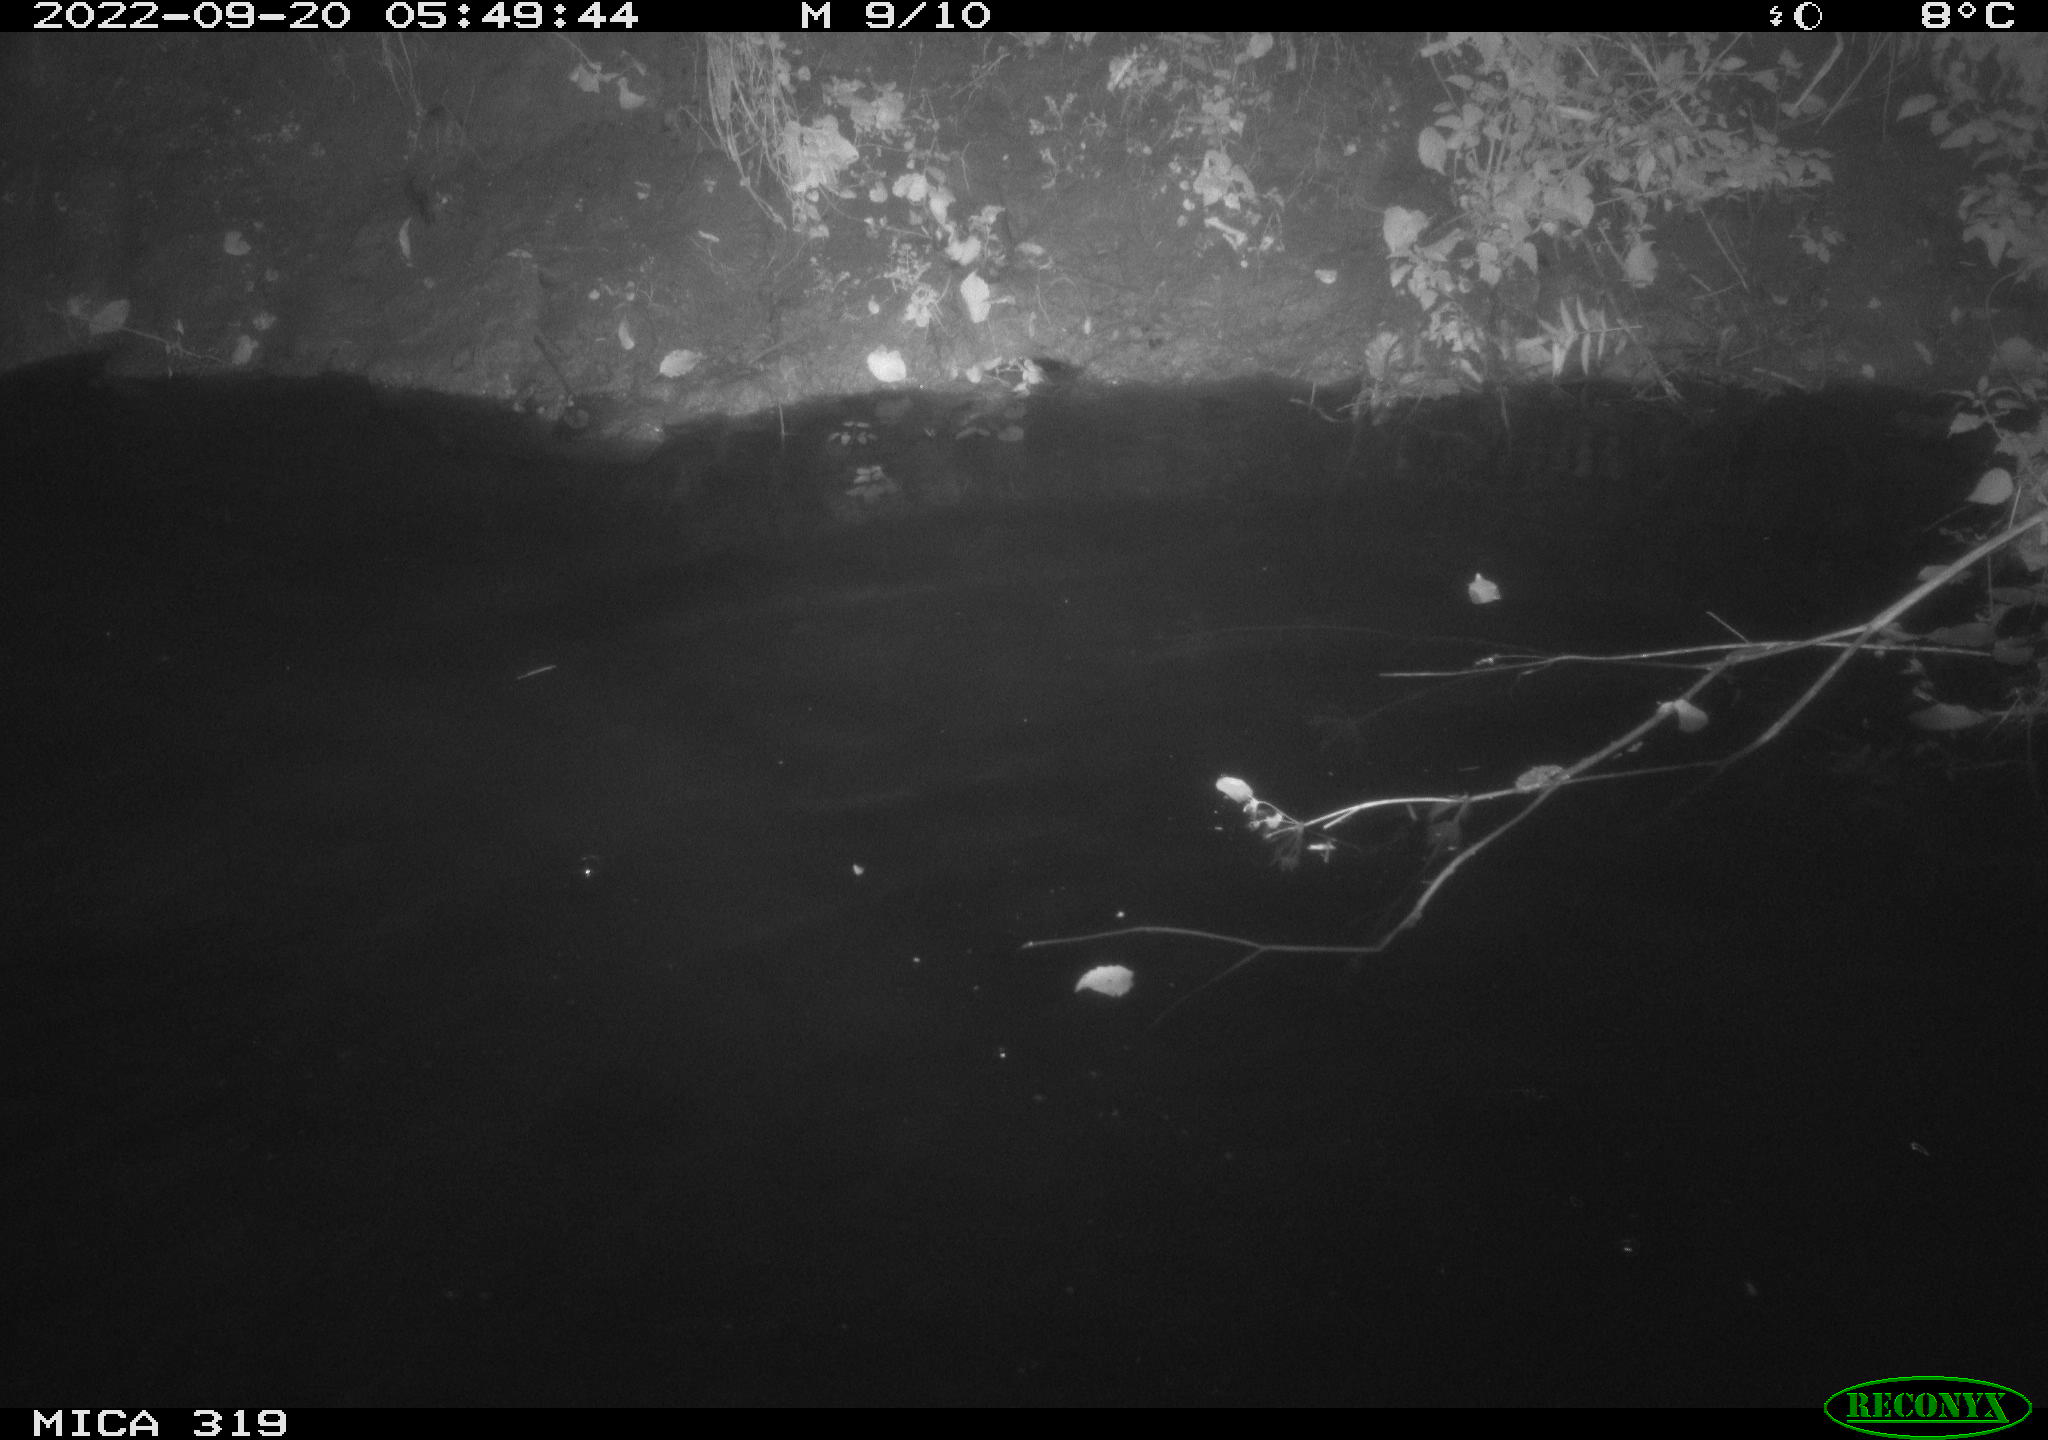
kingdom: Animalia
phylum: Chordata
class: Aves
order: Anseriformes
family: Anatidae
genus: Anas
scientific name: Anas
